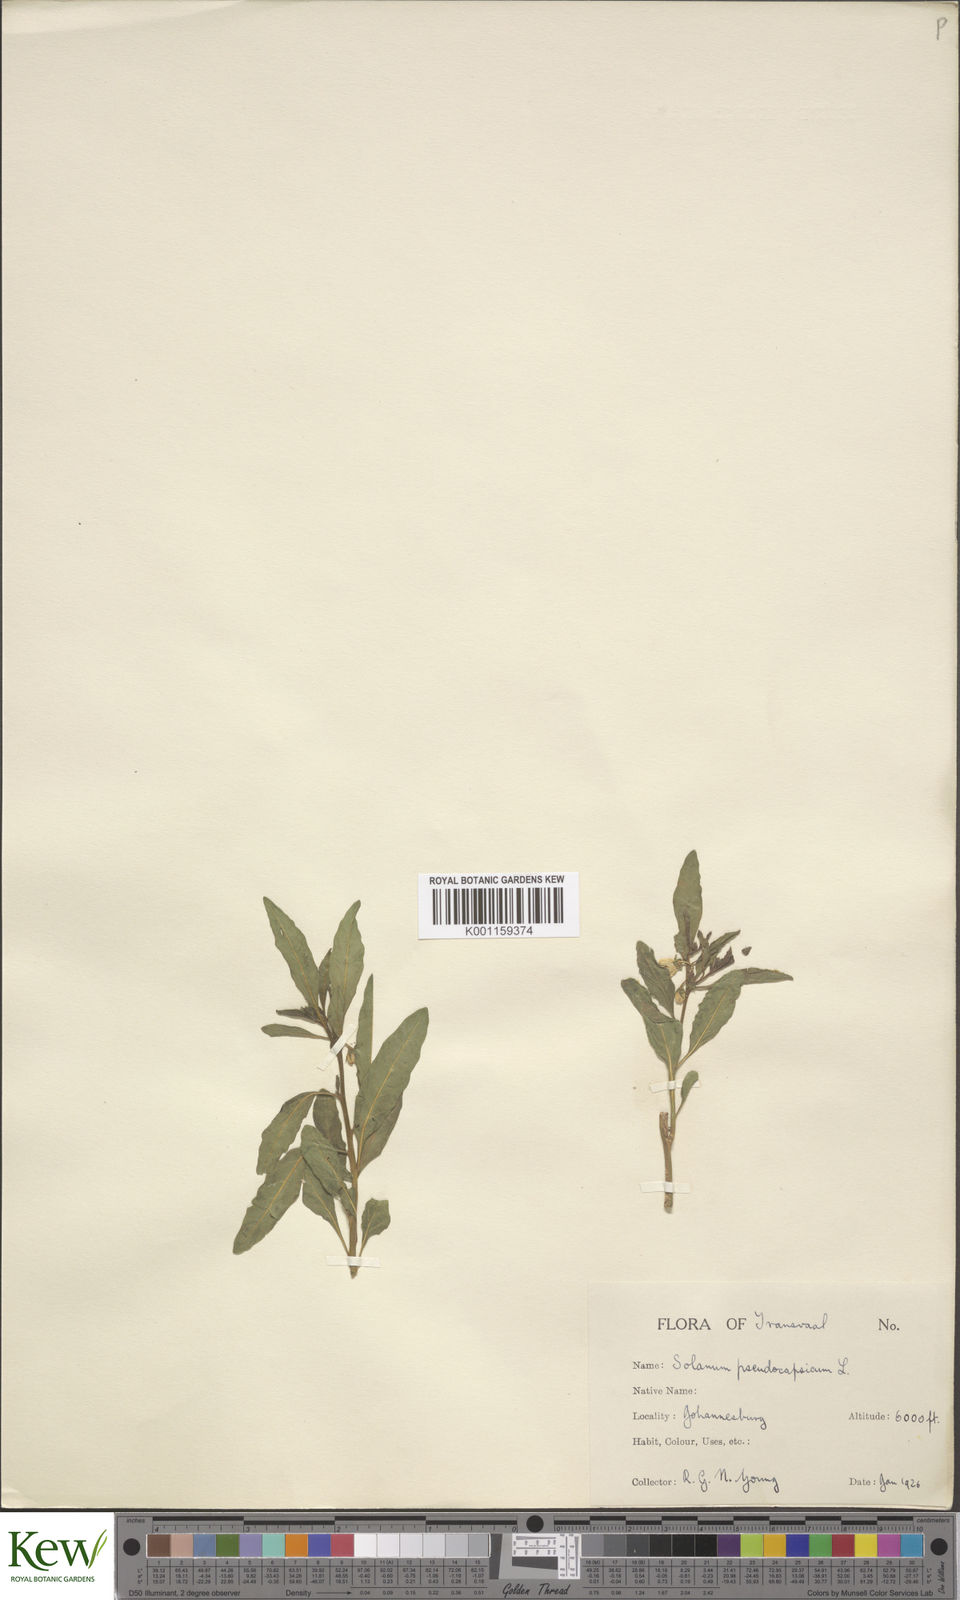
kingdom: Plantae
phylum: Tracheophyta
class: Magnoliopsida
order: Solanales
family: Solanaceae
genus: Solanum
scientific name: Solanum pseudocapsicum
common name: Jerusalem cherry
